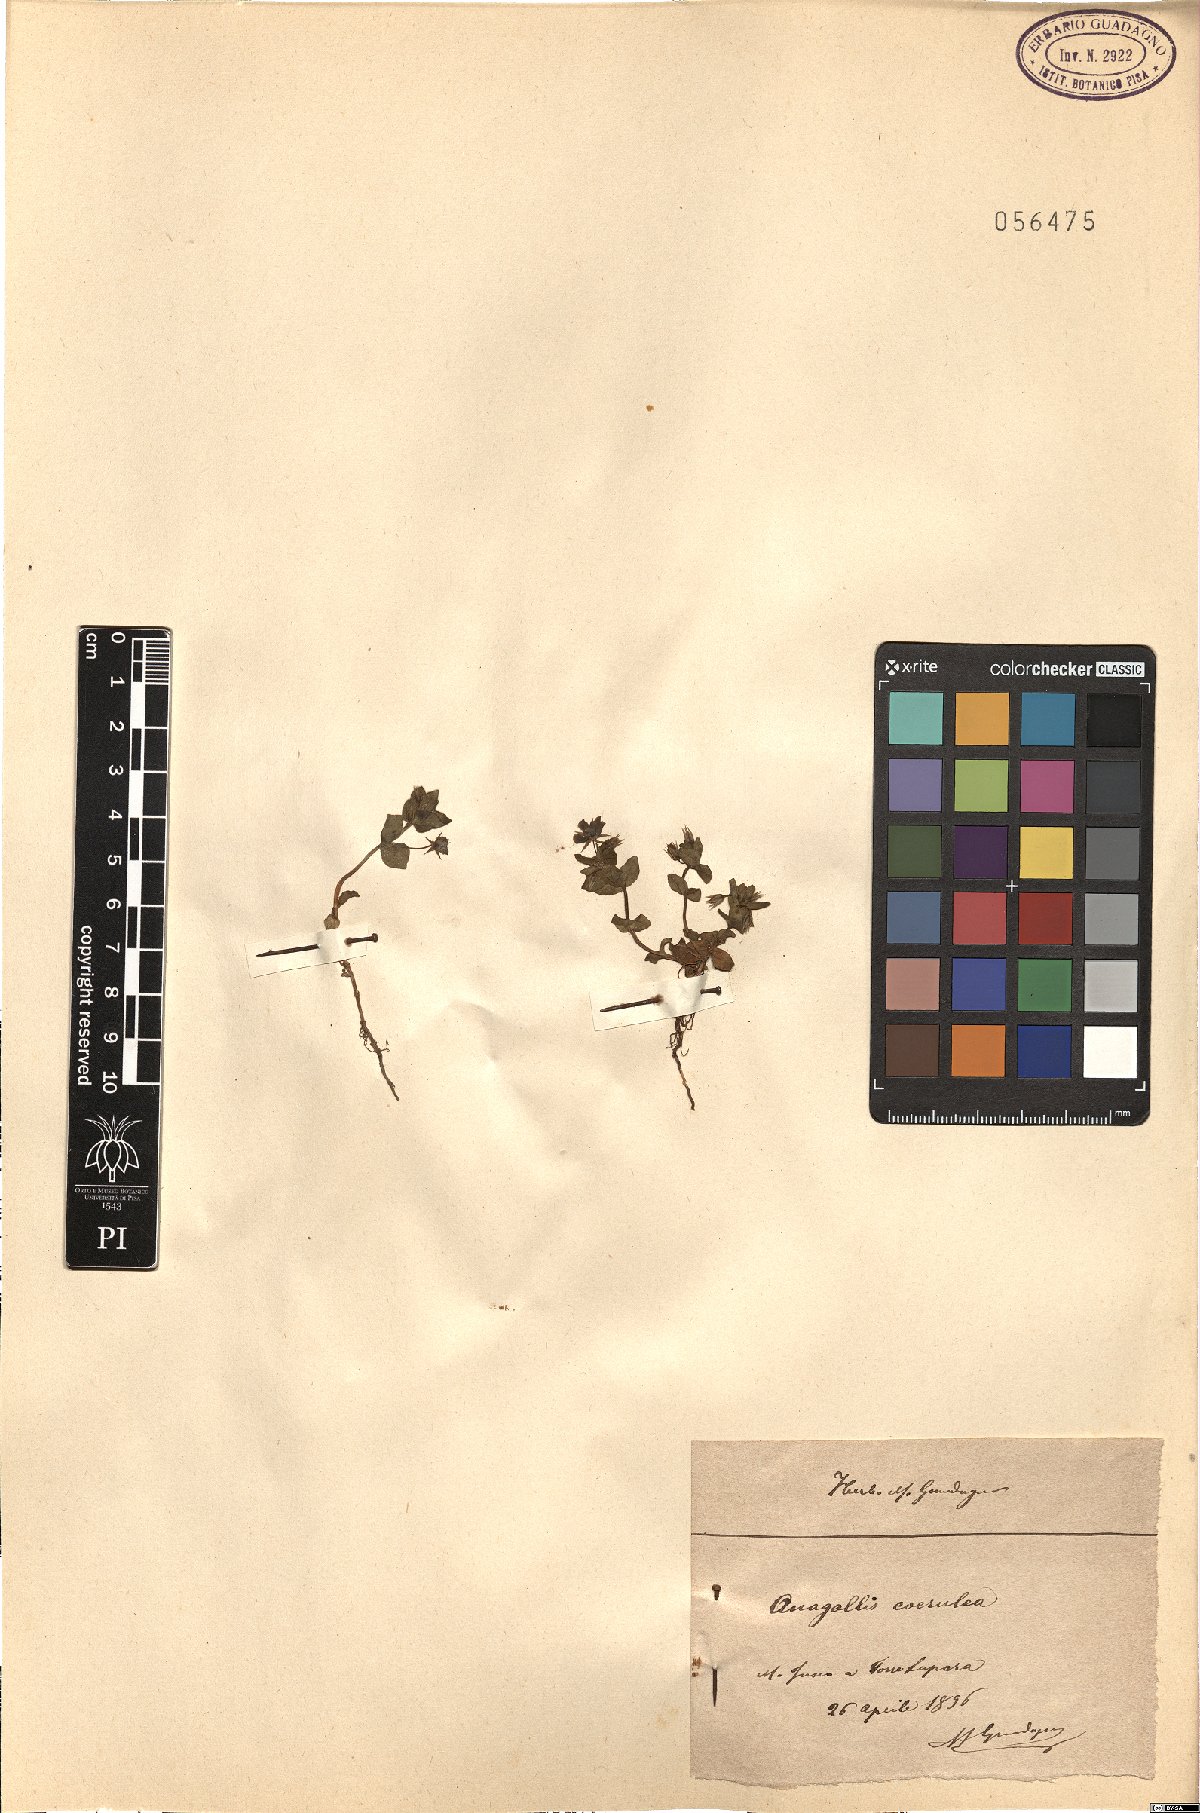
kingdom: Plantae
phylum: Tracheophyta
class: Magnoliopsida
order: Ericales
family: Primulaceae
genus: Lysimachia
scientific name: Lysimachia loeflingii
